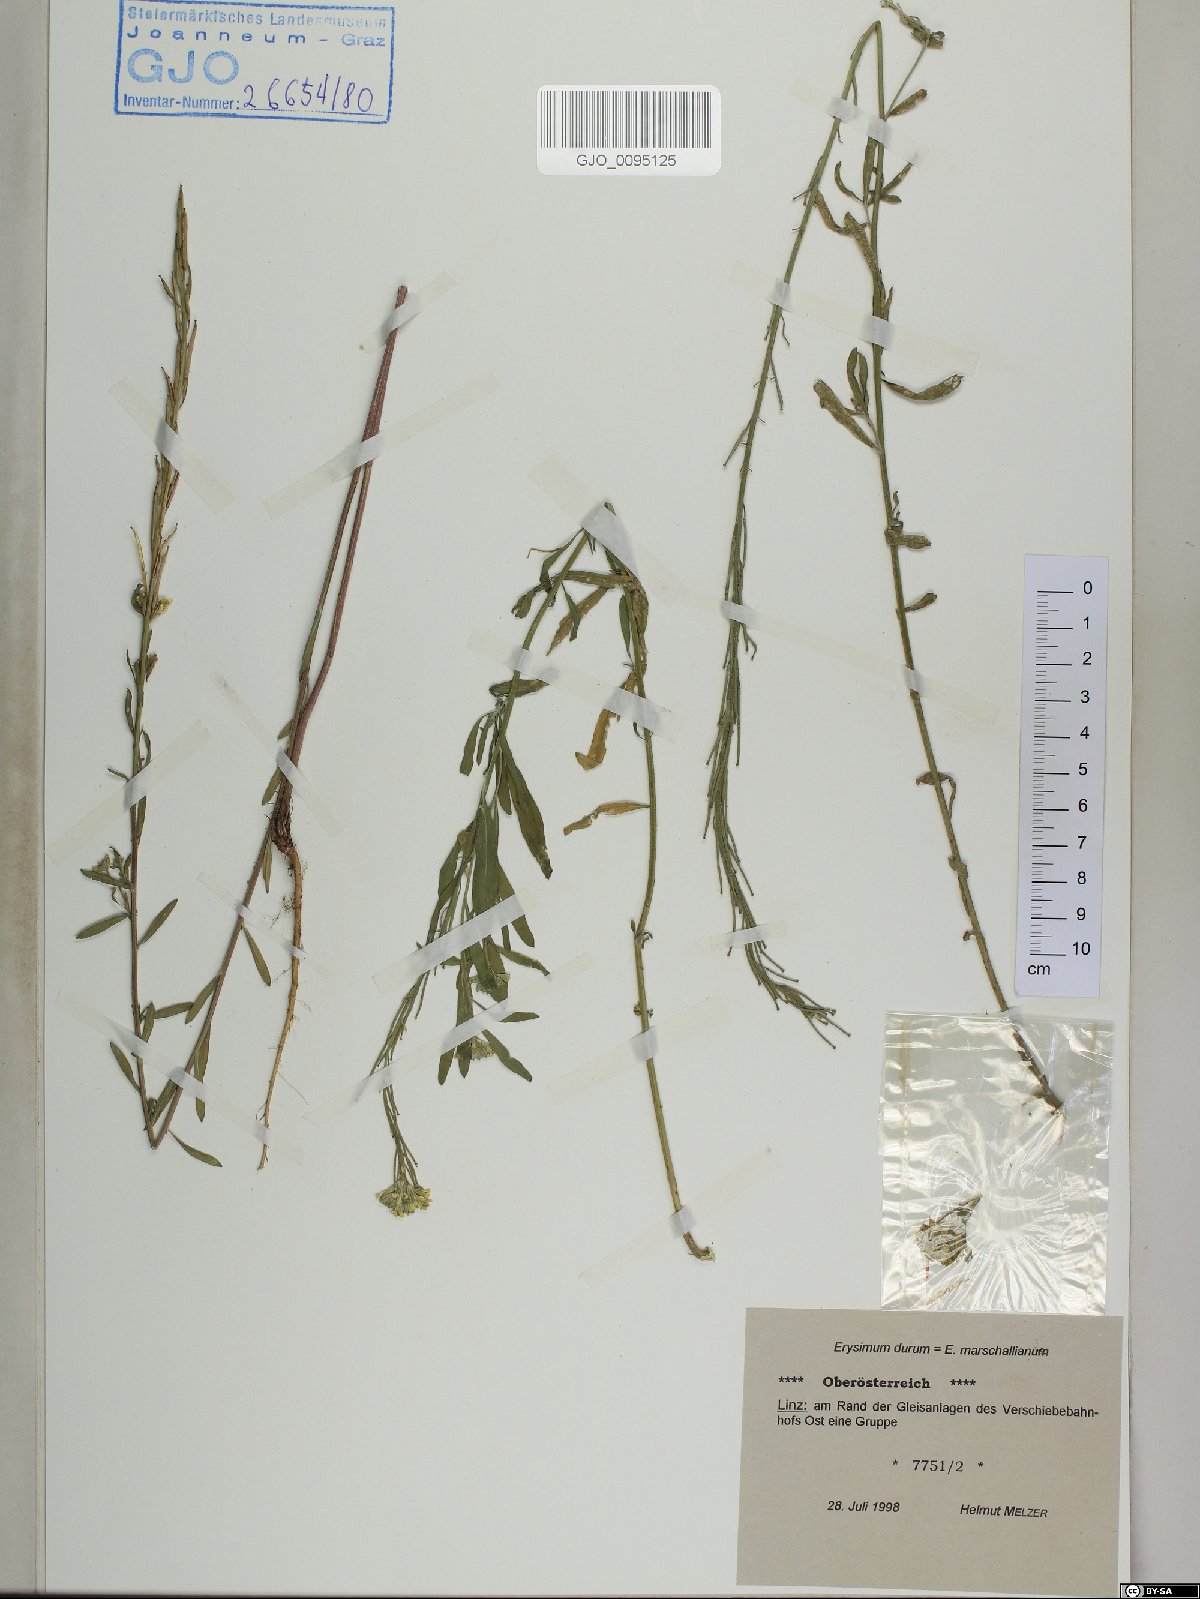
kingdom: Plantae
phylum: Tracheophyta
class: Magnoliopsida
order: Brassicales
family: Brassicaceae
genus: Erysimum
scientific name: Erysimum marschallianum
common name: Hard wallflower
